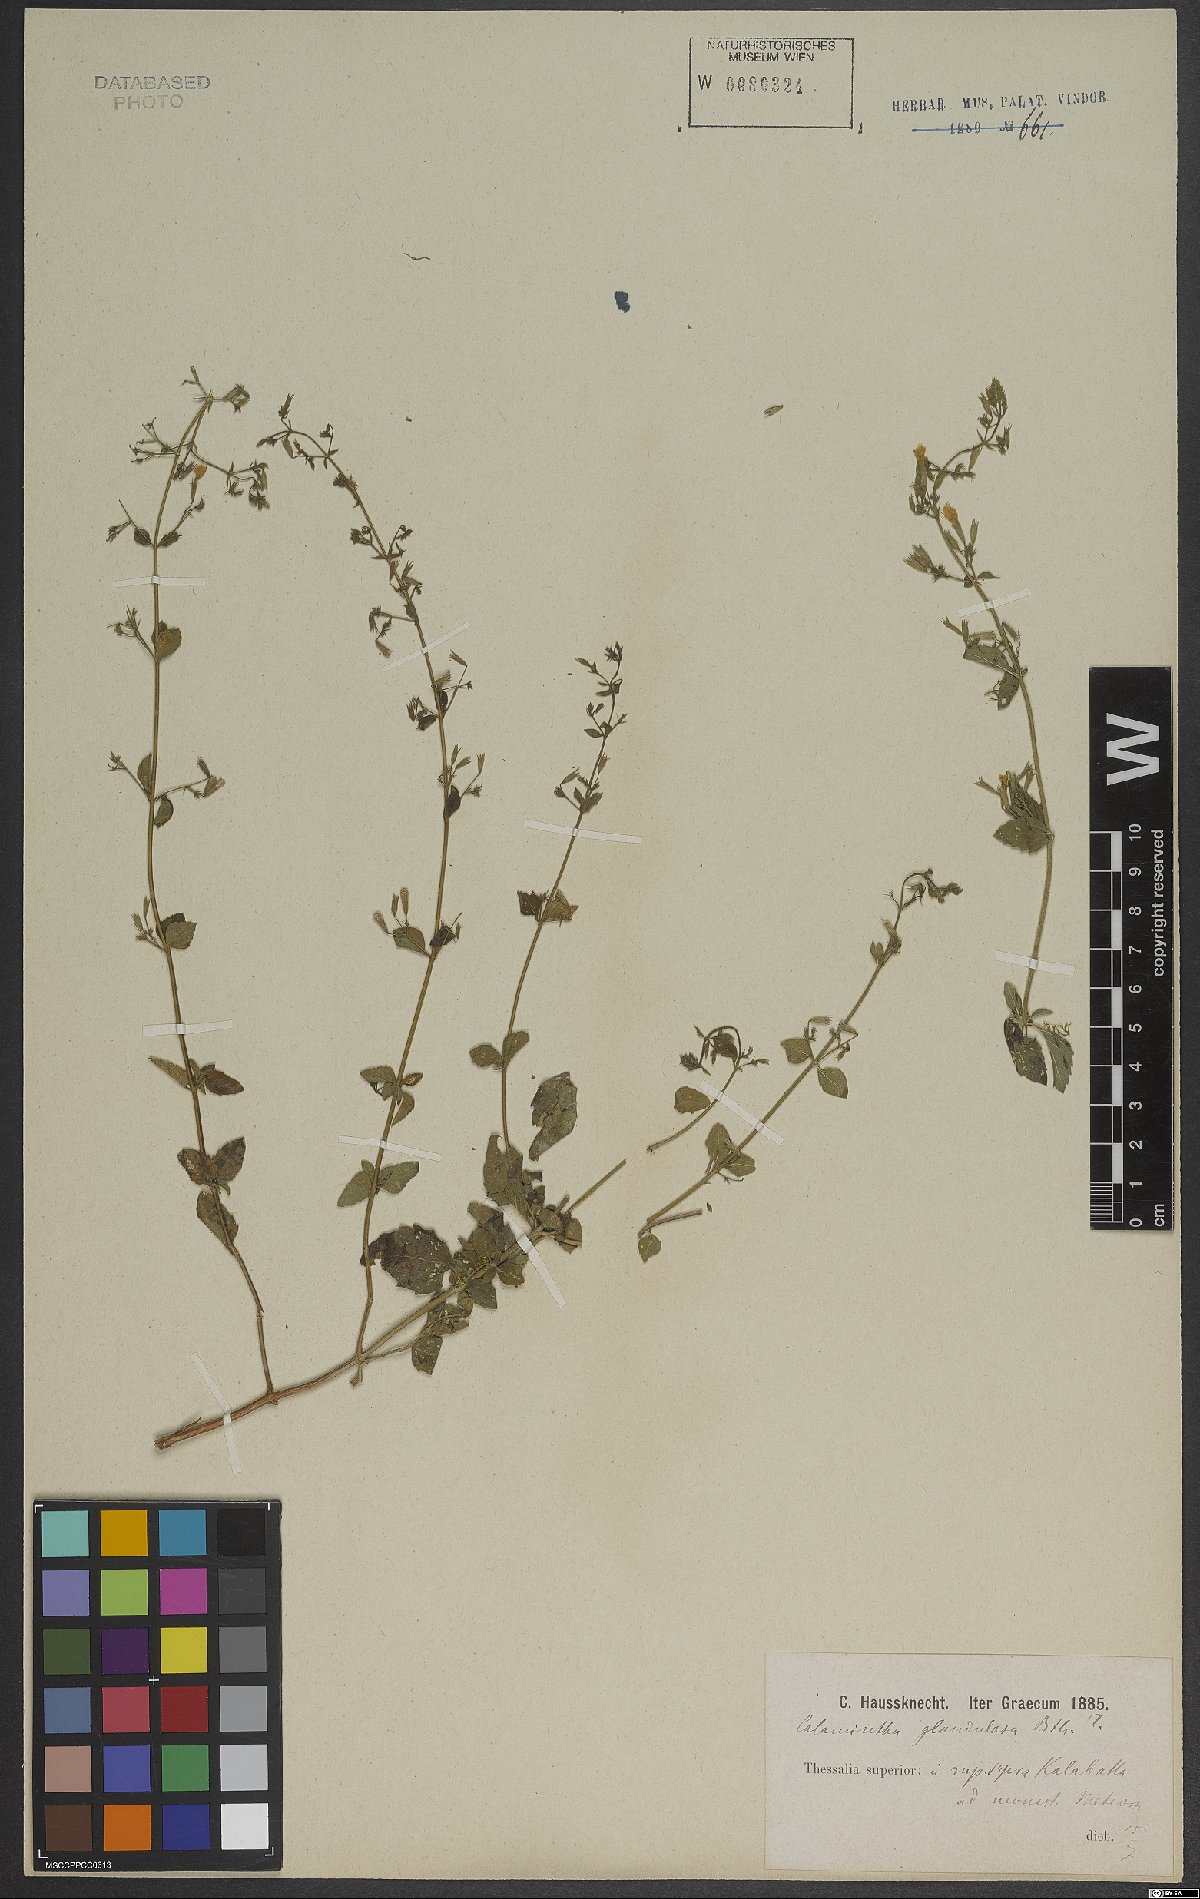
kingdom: Plantae
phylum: Tracheophyta
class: Magnoliopsida
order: Lamiales
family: Lamiaceae
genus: Clinopodium
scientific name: Clinopodium nepeta
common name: Lesser calamint
